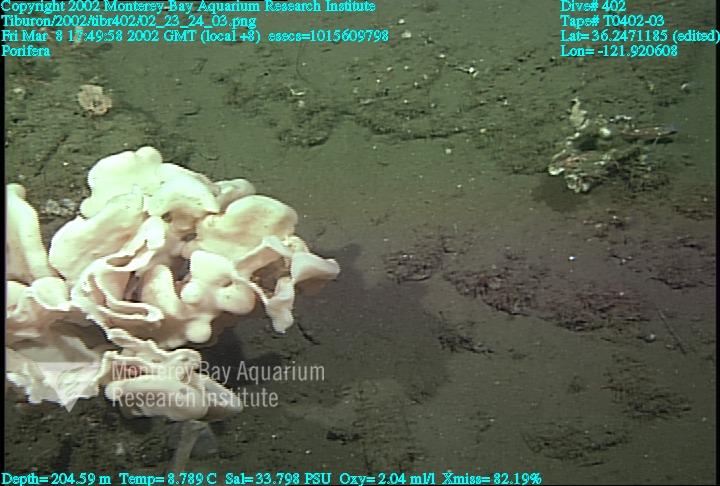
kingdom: Animalia
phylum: Porifera
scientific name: Porifera
